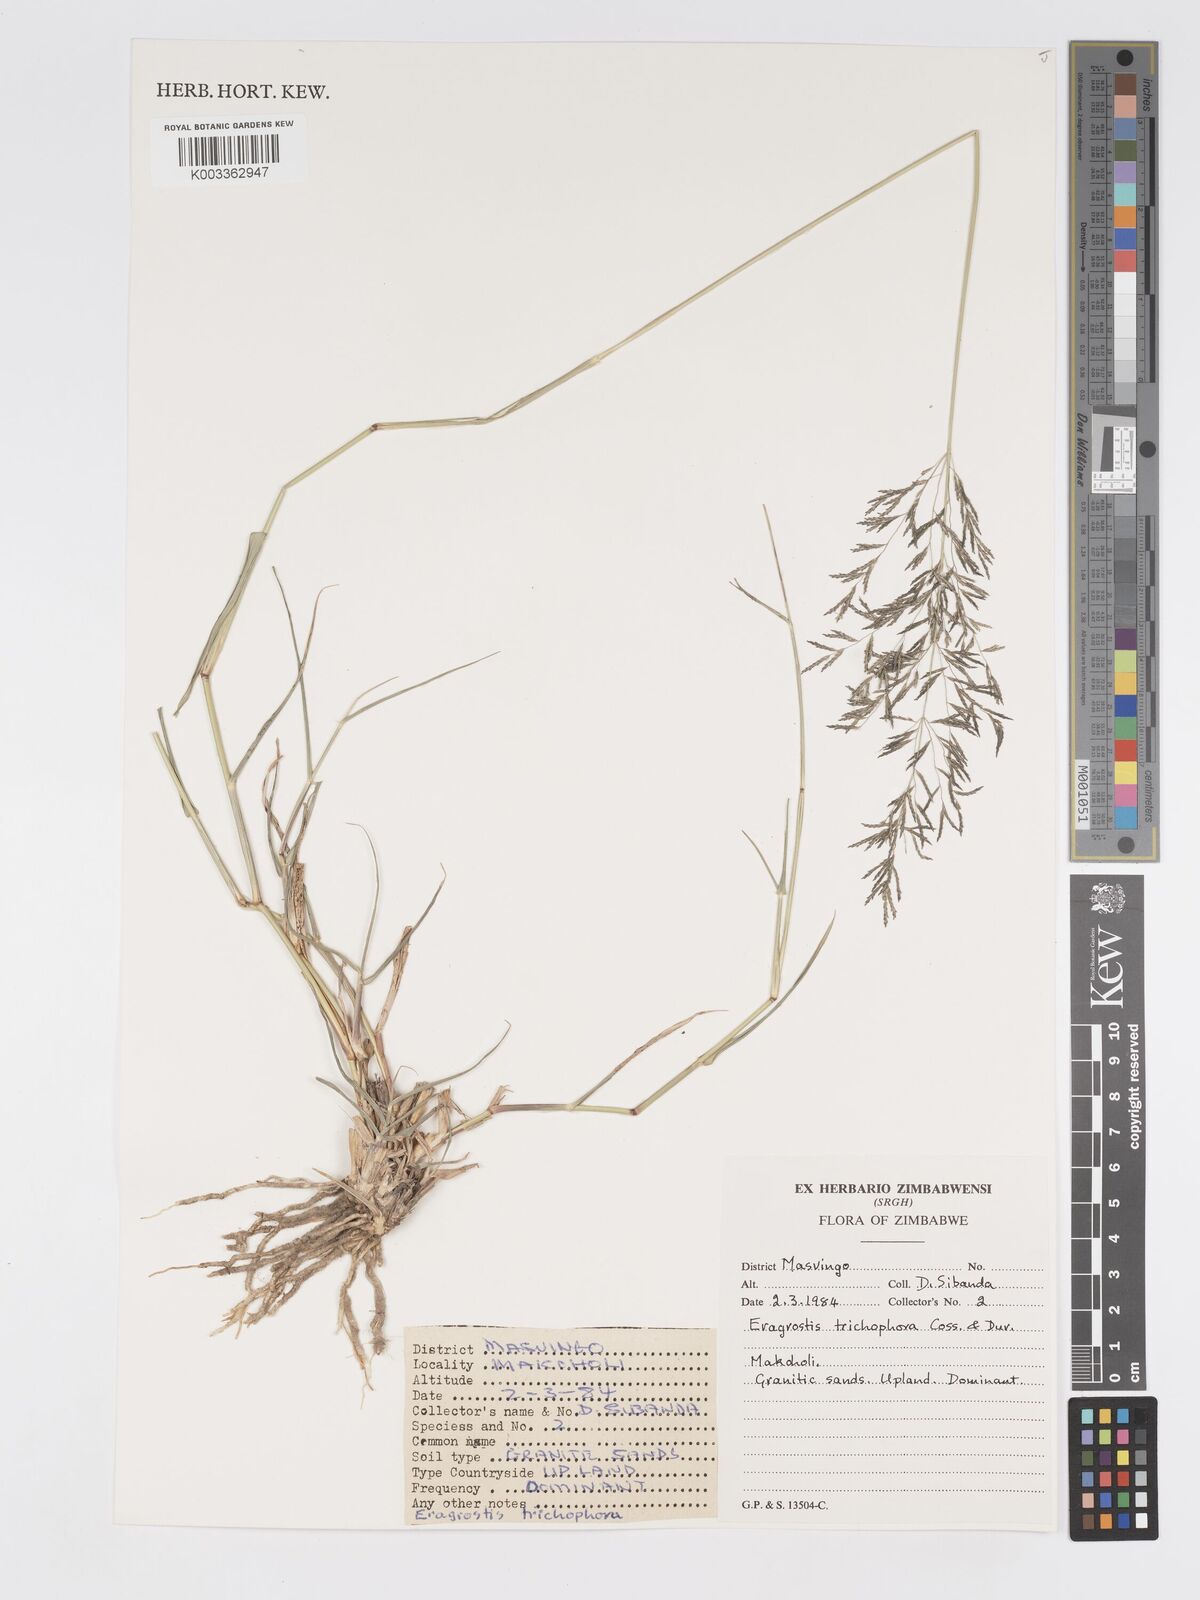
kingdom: Plantae
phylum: Tracheophyta
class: Liliopsida
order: Poales
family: Poaceae
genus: Eragrostis
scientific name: Eragrostis cylindriflora
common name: Cylinderflower lovegrass
